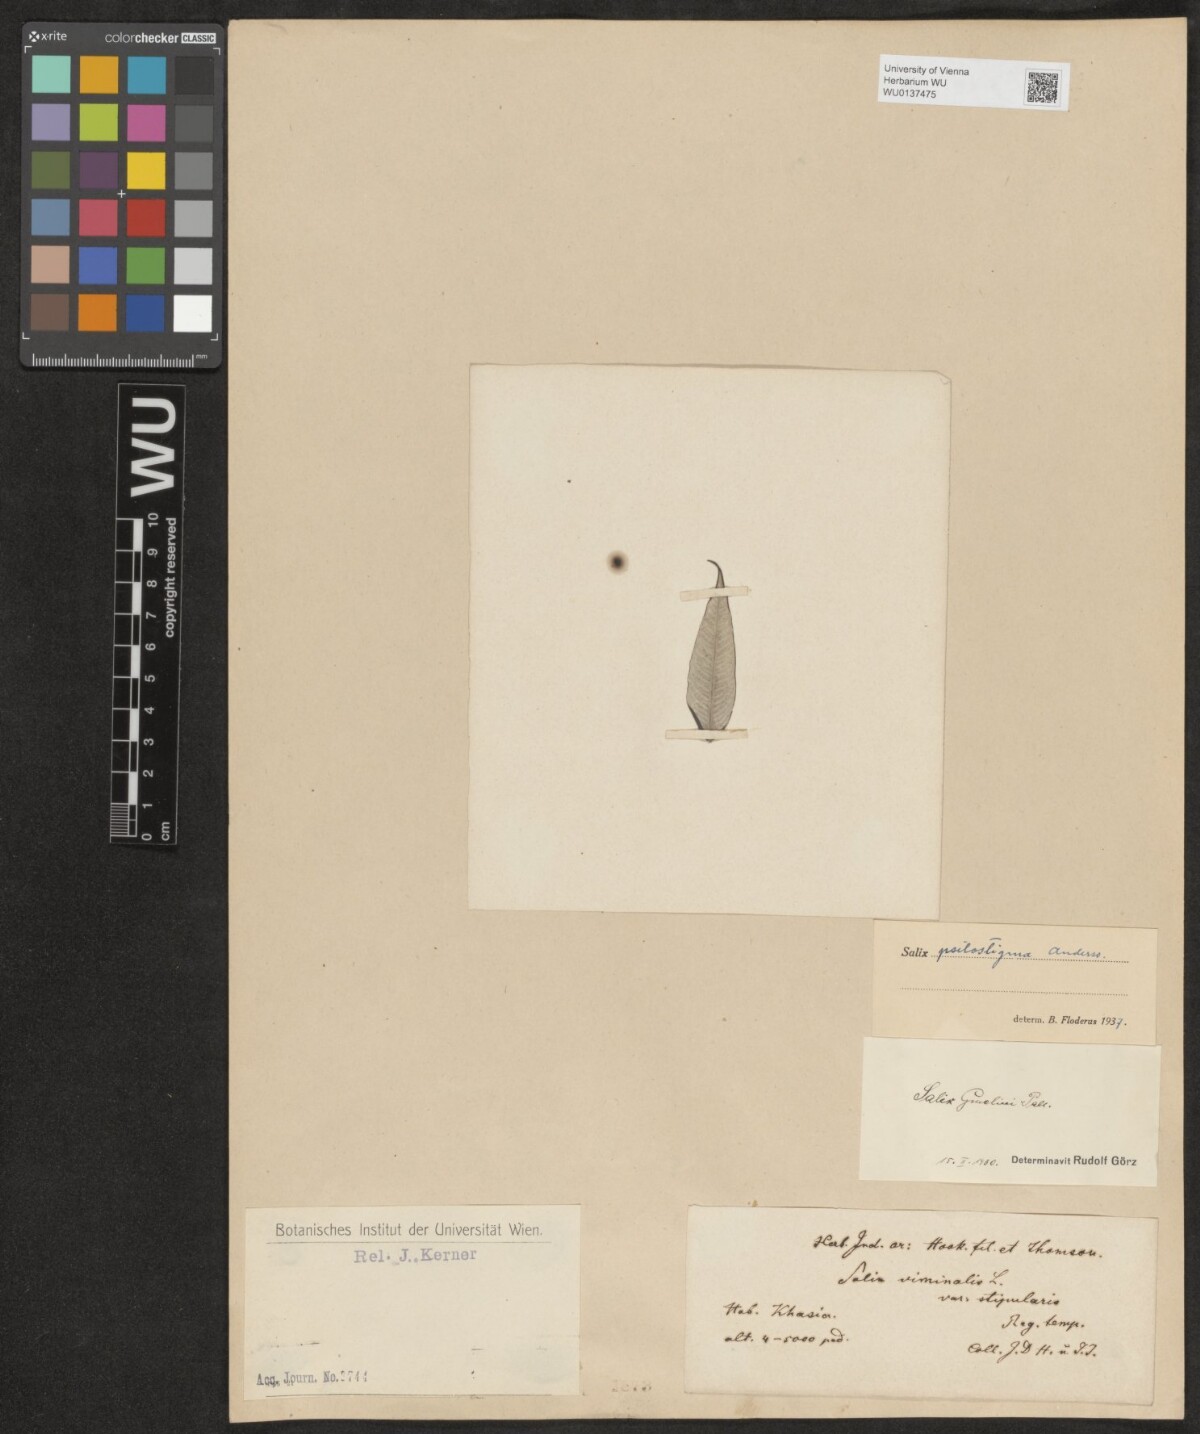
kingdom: Plantae
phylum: Tracheophyta
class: Magnoliopsida
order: Malpighiales
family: Salicaceae
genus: Salix
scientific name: Salix gmelinii
